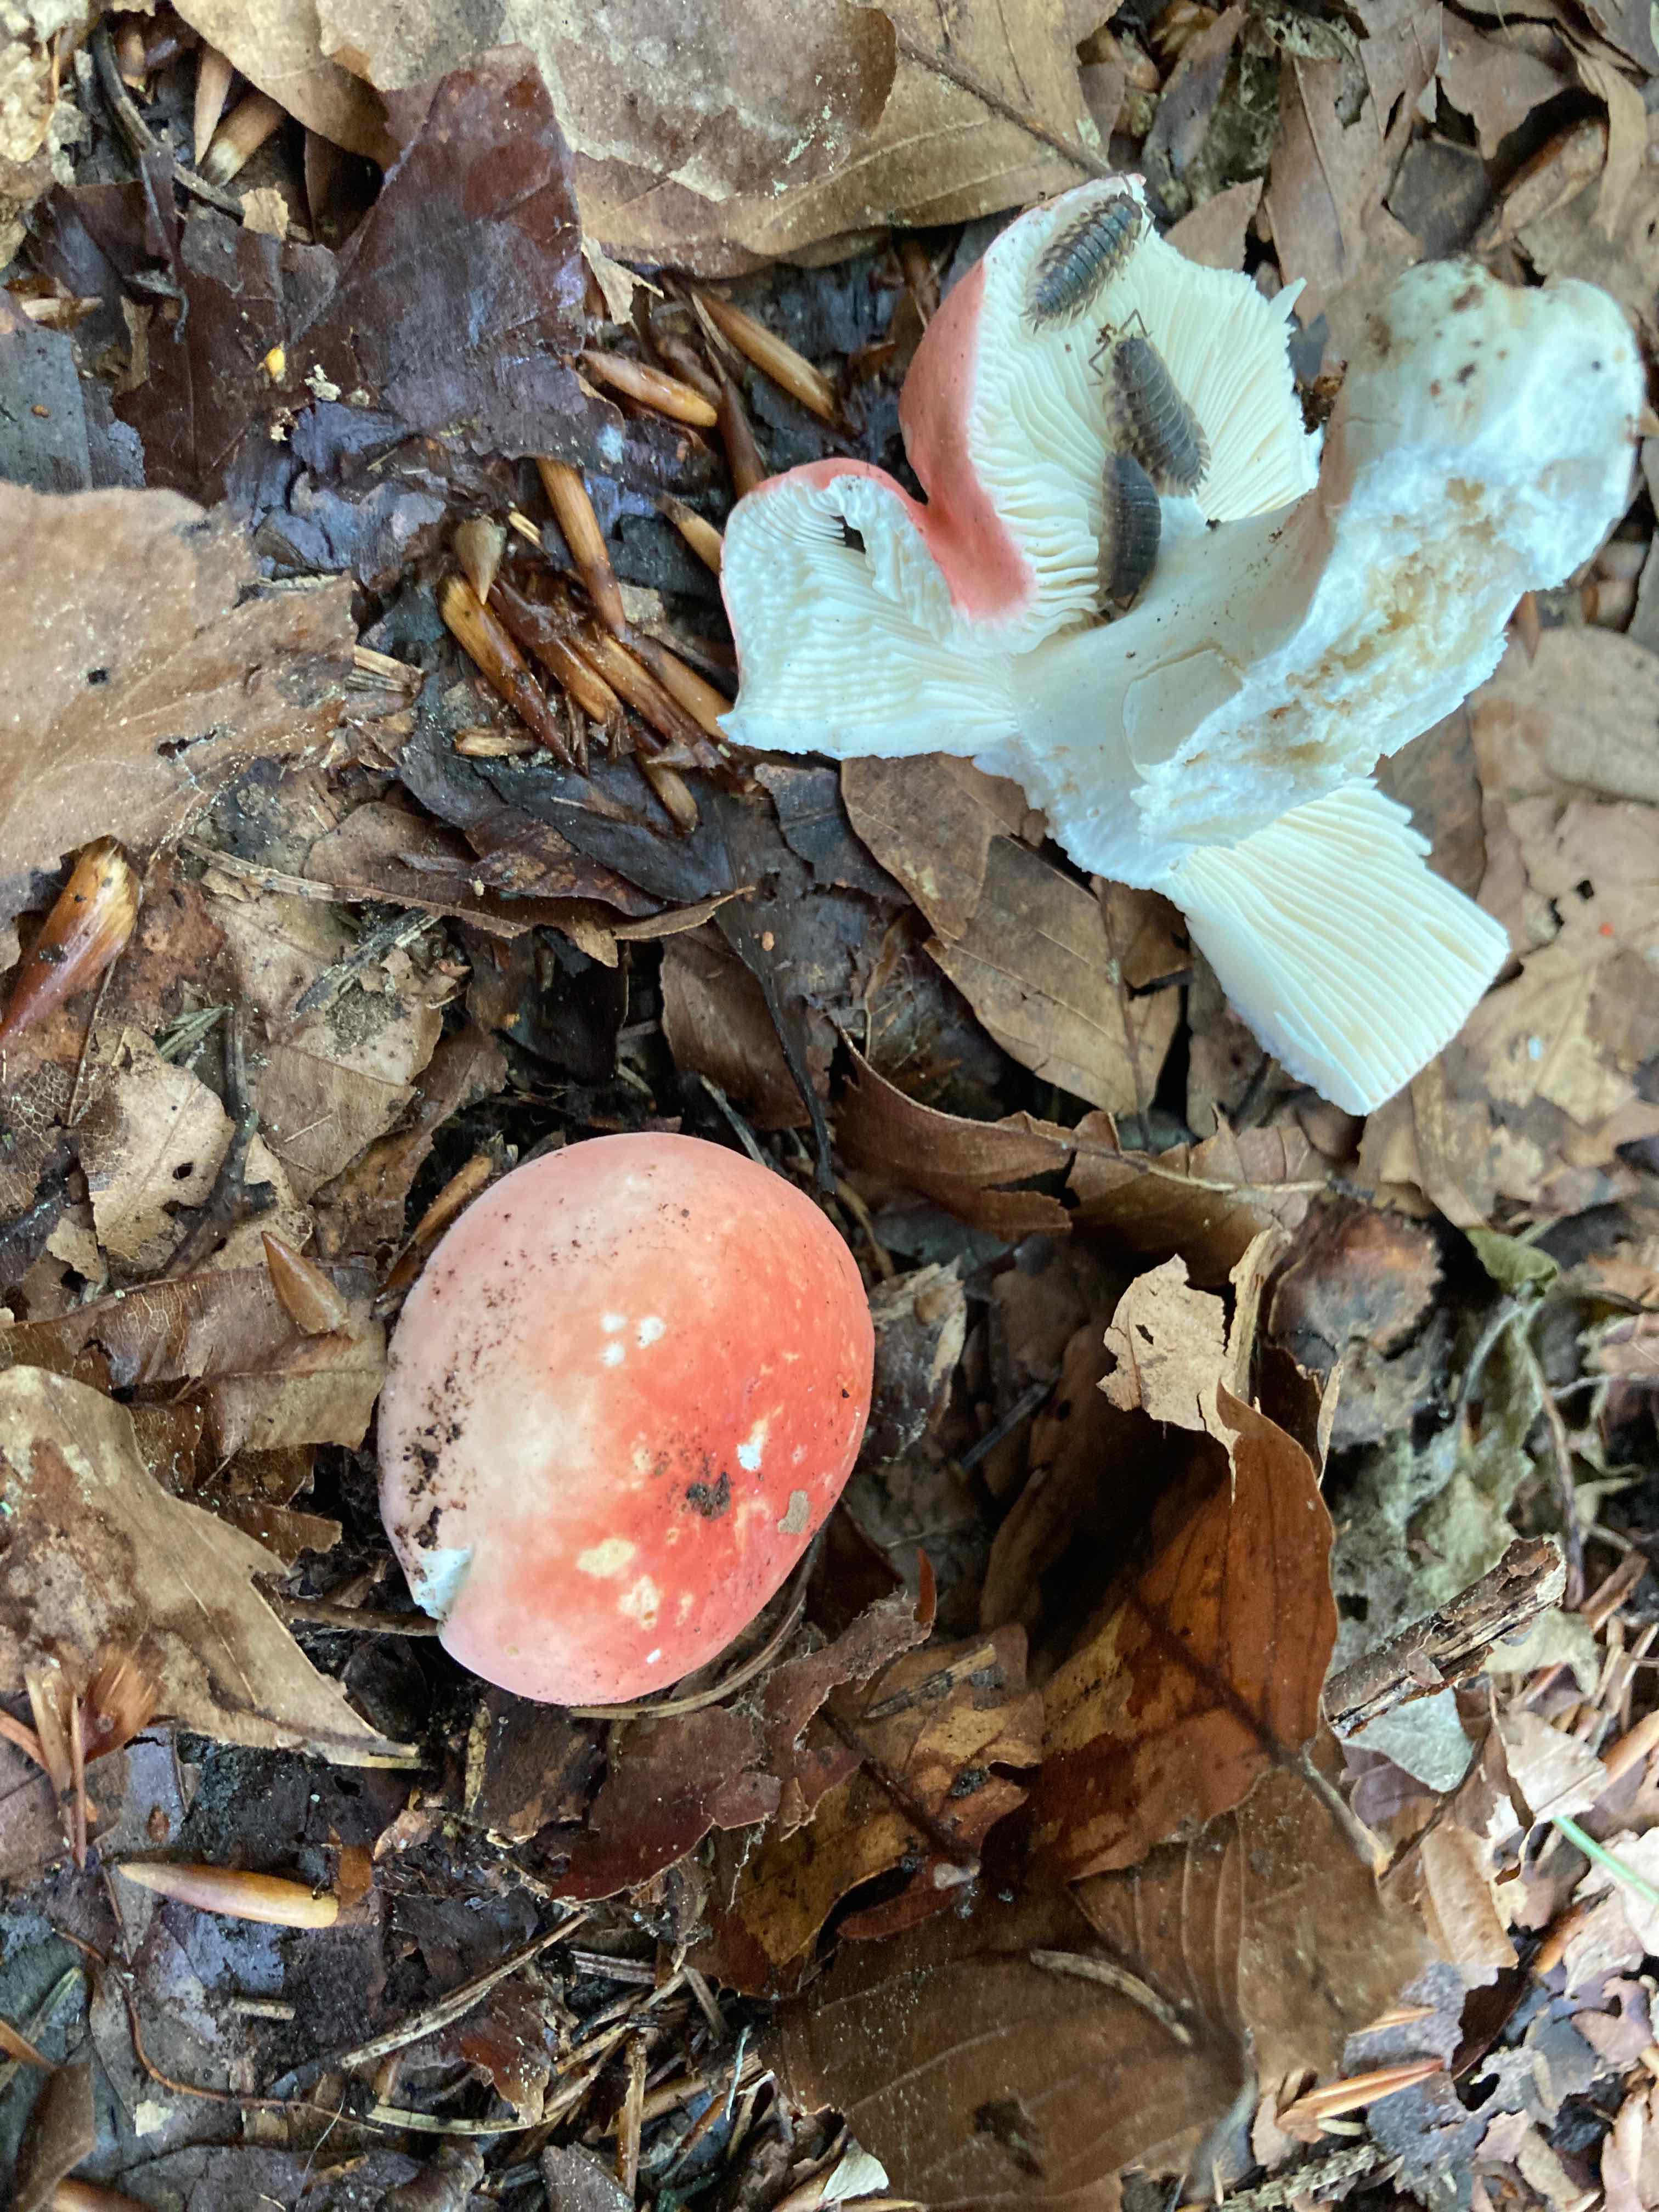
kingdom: Fungi
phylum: Basidiomycota
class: Agaricomycetes
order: Russulales
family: Russulaceae
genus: Russula
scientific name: Russula rosea
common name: fastkødet skørhat
